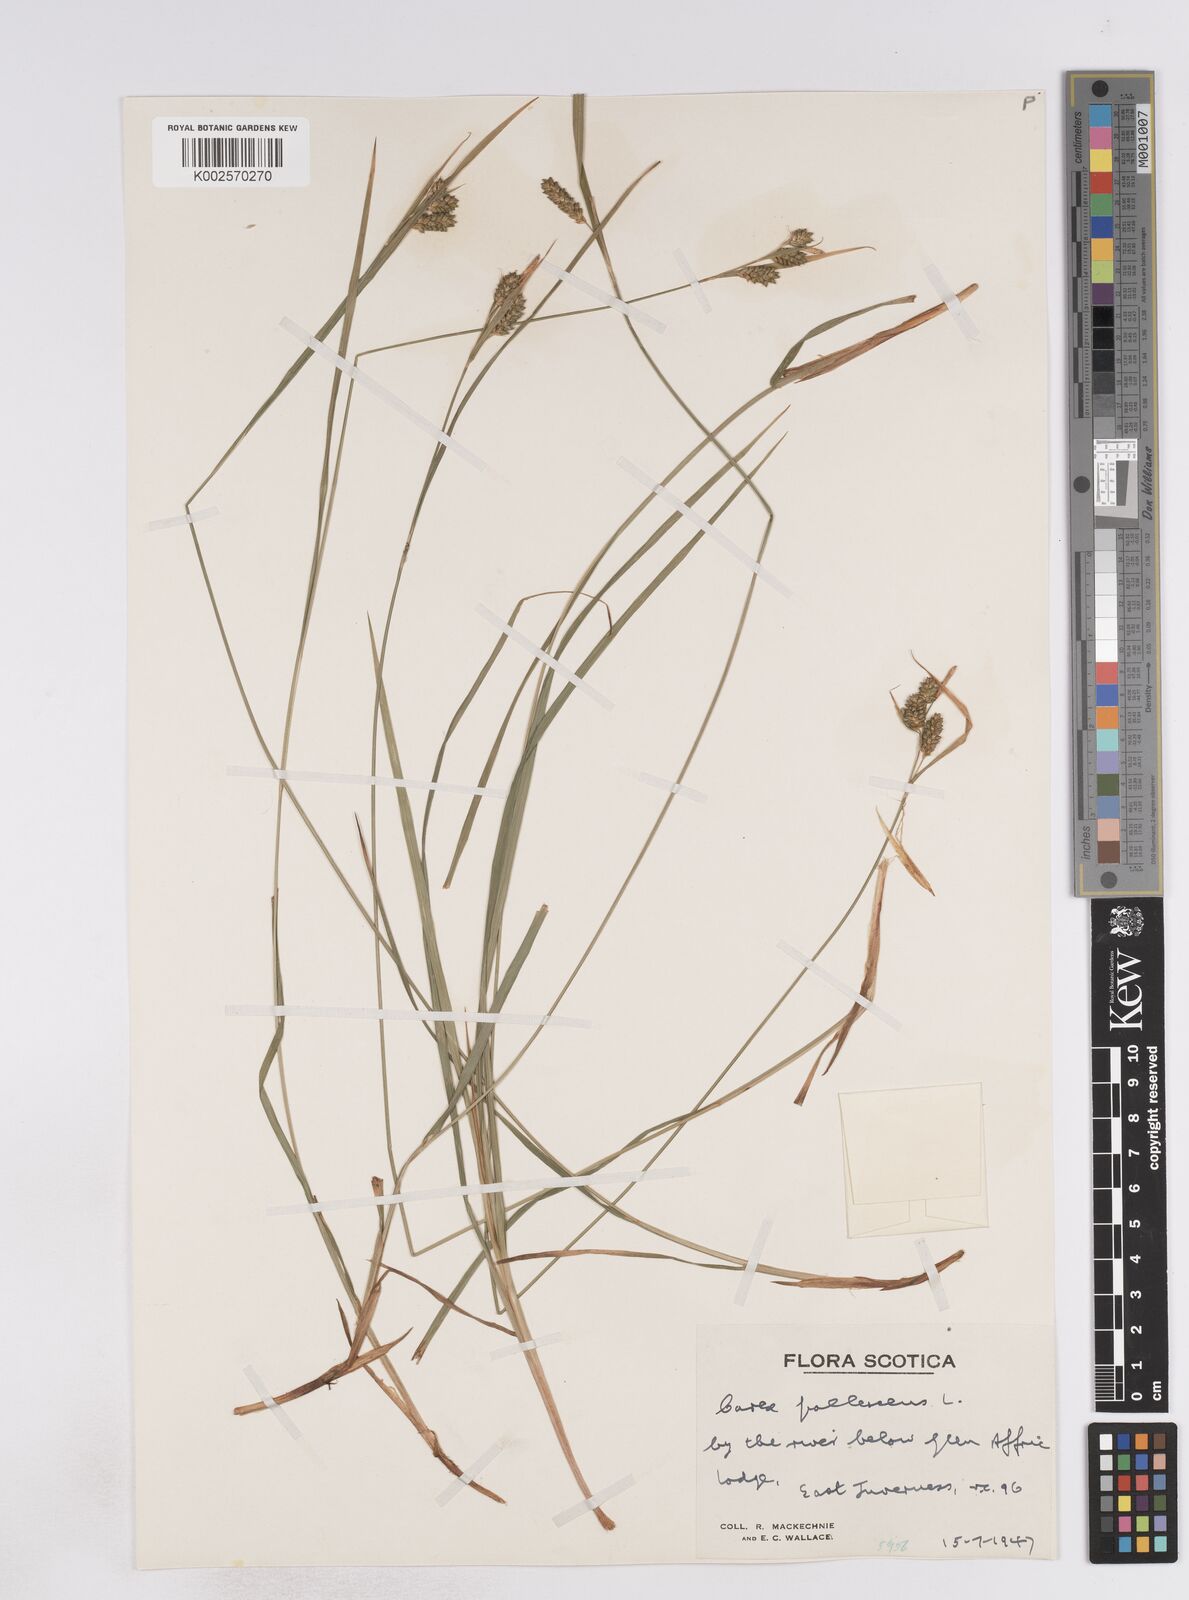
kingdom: Plantae
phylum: Tracheophyta
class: Liliopsida
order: Poales
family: Cyperaceae
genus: Carex
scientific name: Carex pallescens
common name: Pale sedge
